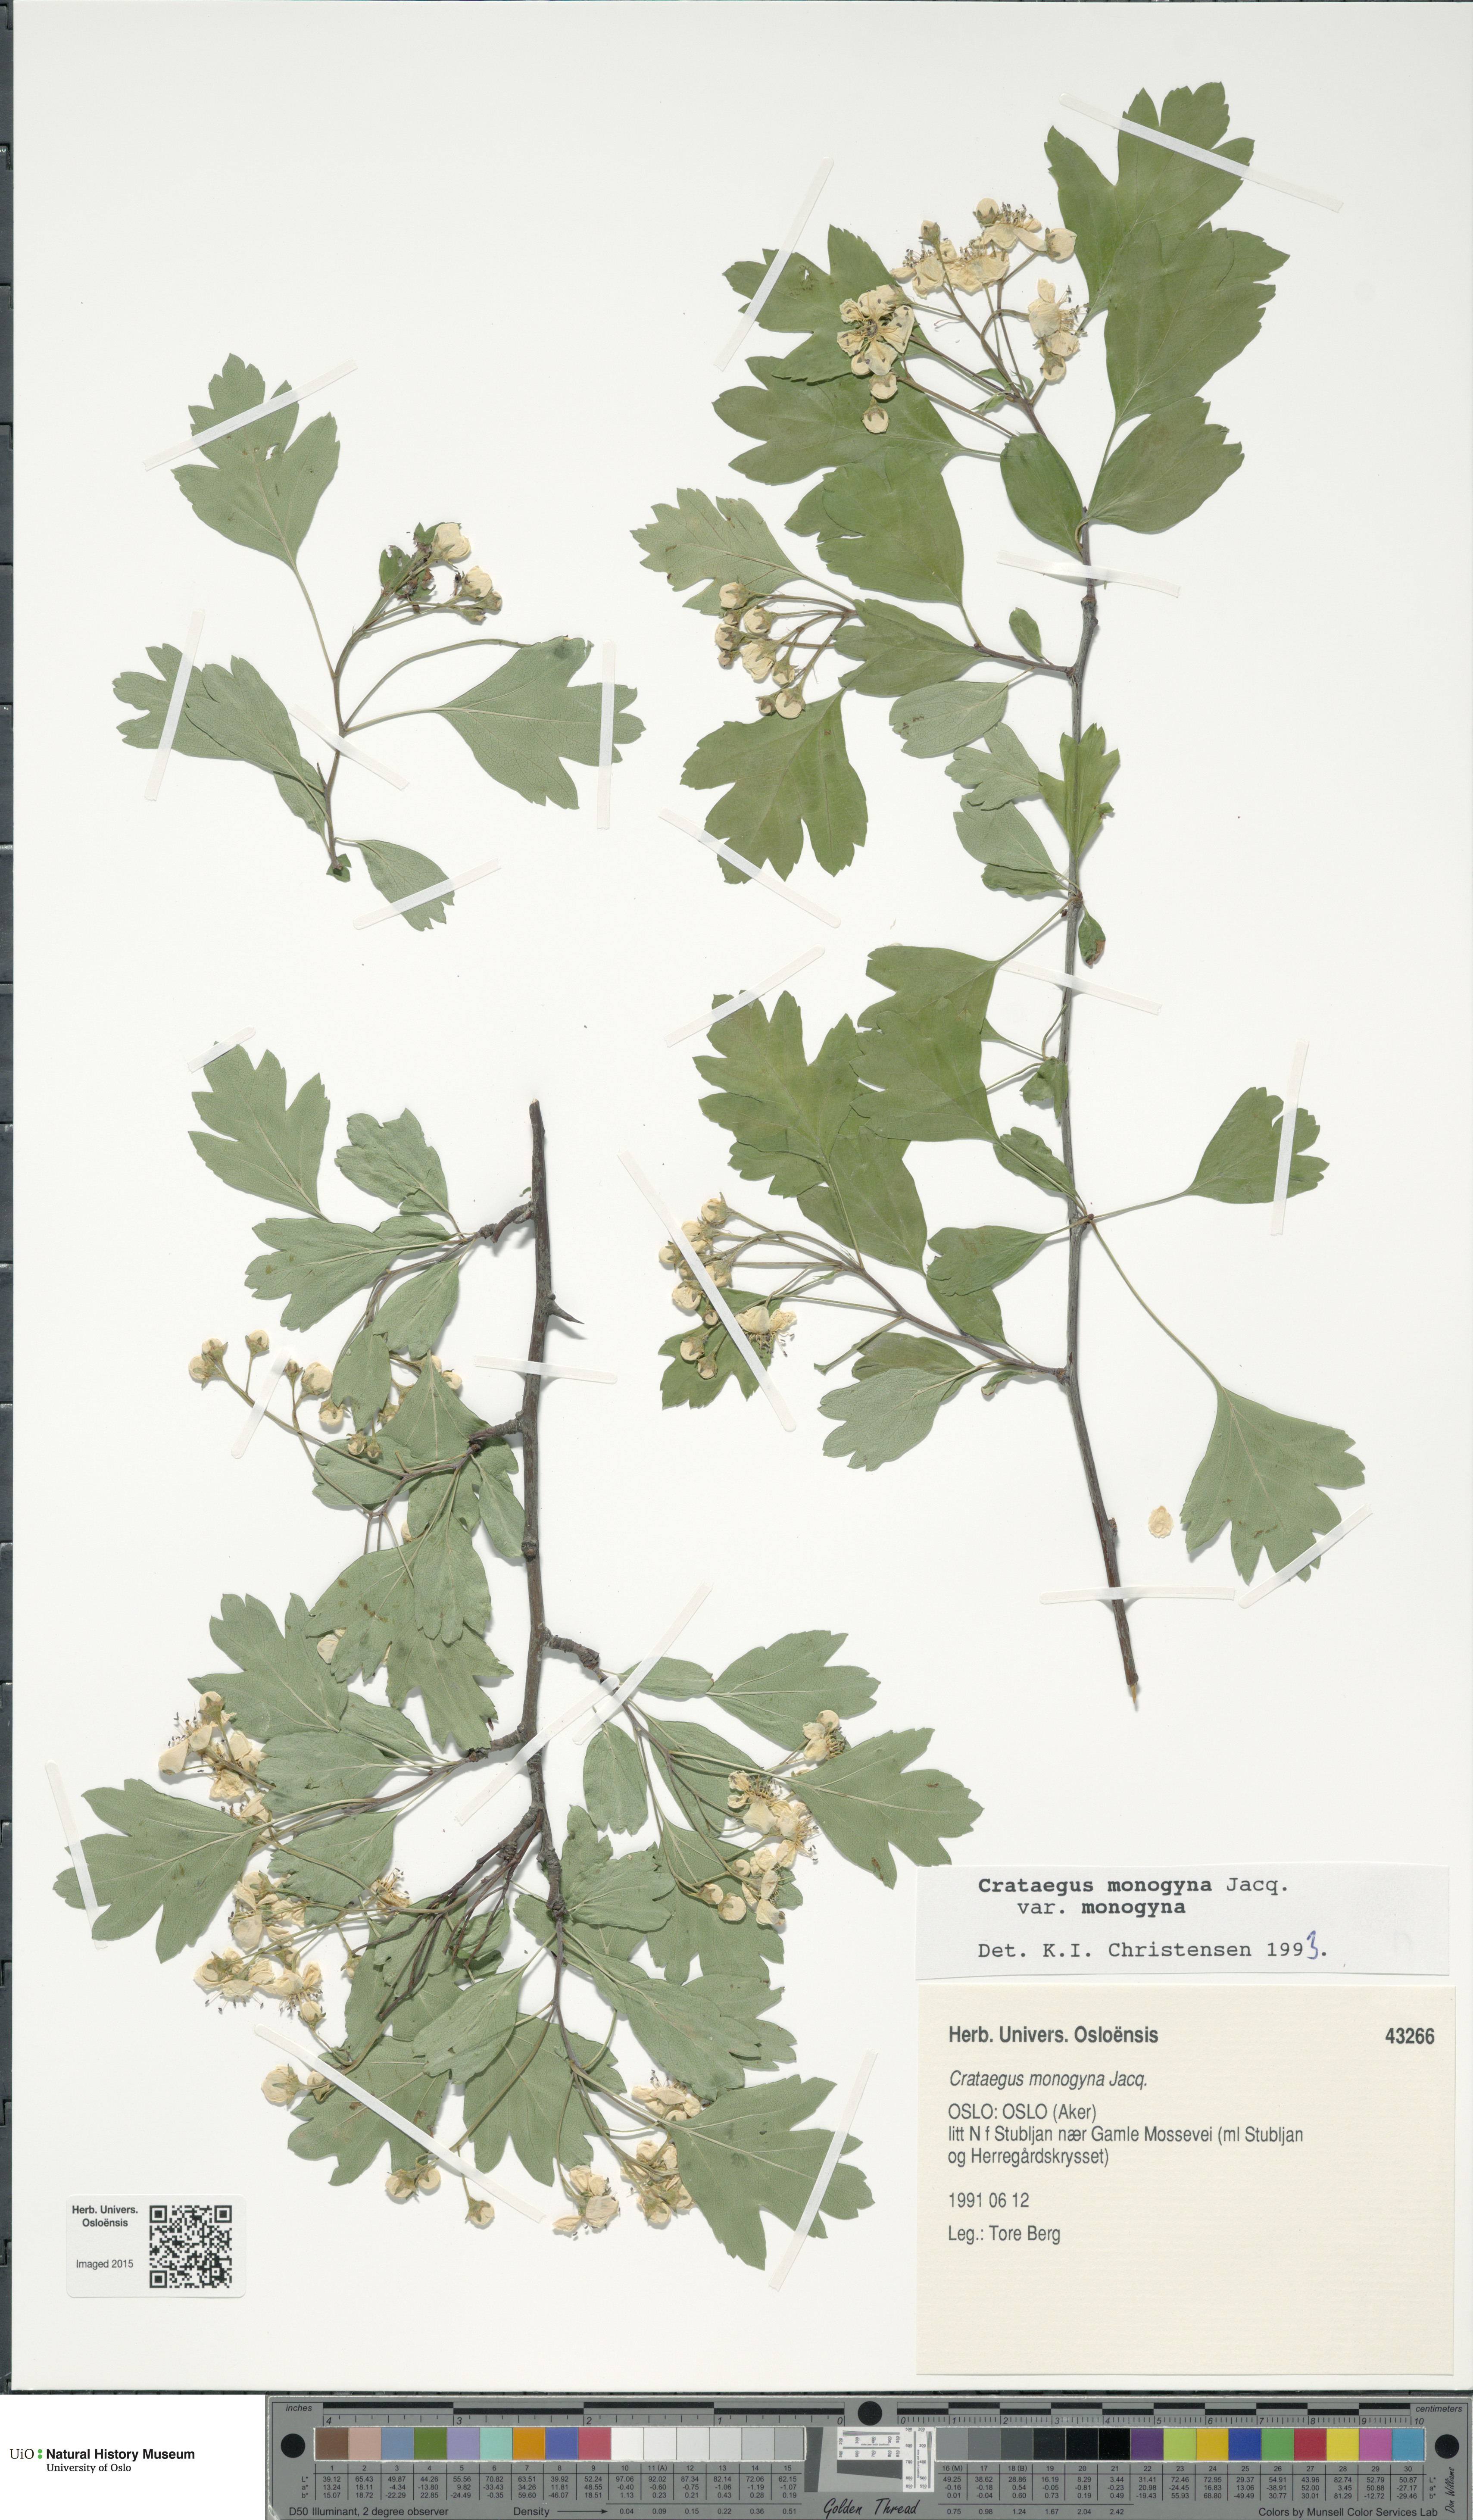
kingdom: Plantae
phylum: Tracheophyta
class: Magnoliopsida
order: Rosales
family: Rosaceae
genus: Crataegus
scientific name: Crataegus monogyna
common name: Hawthorn
